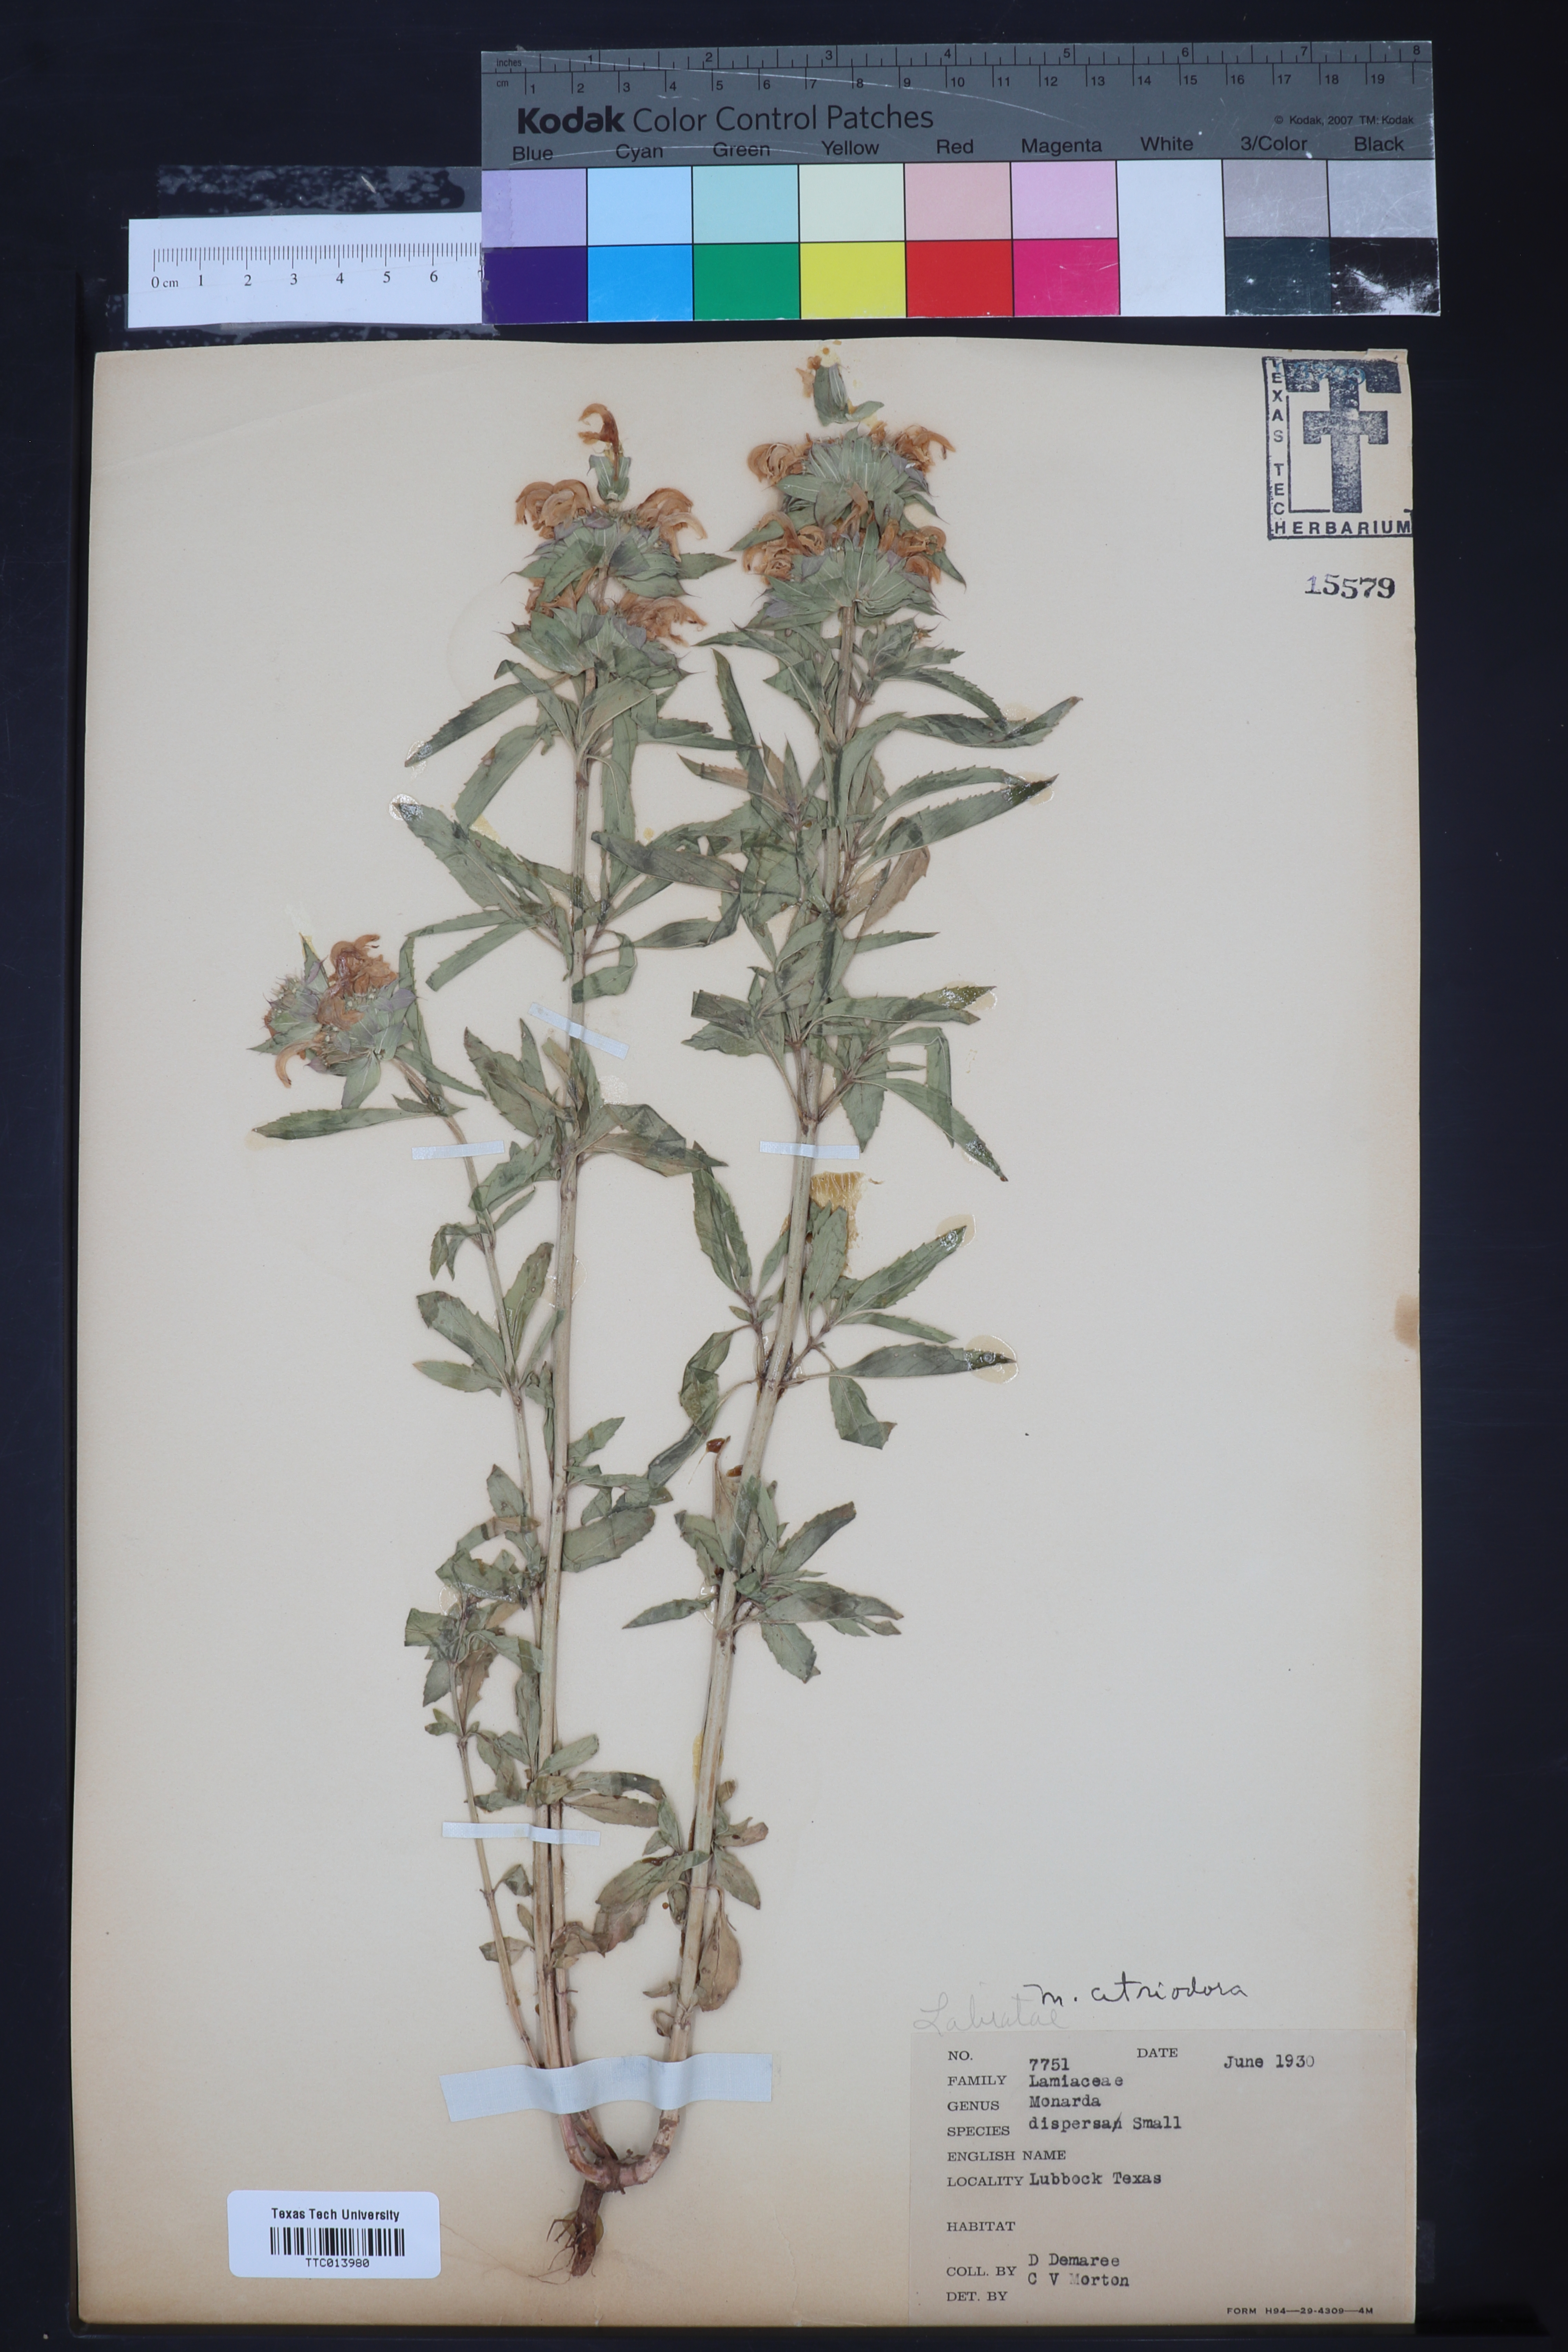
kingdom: Plantae
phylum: Tracheophyta
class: Magnoliopsida
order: Lamiales
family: Lamiaceae
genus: Monarda
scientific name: Monarda citriodora
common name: Lemon beebalm
